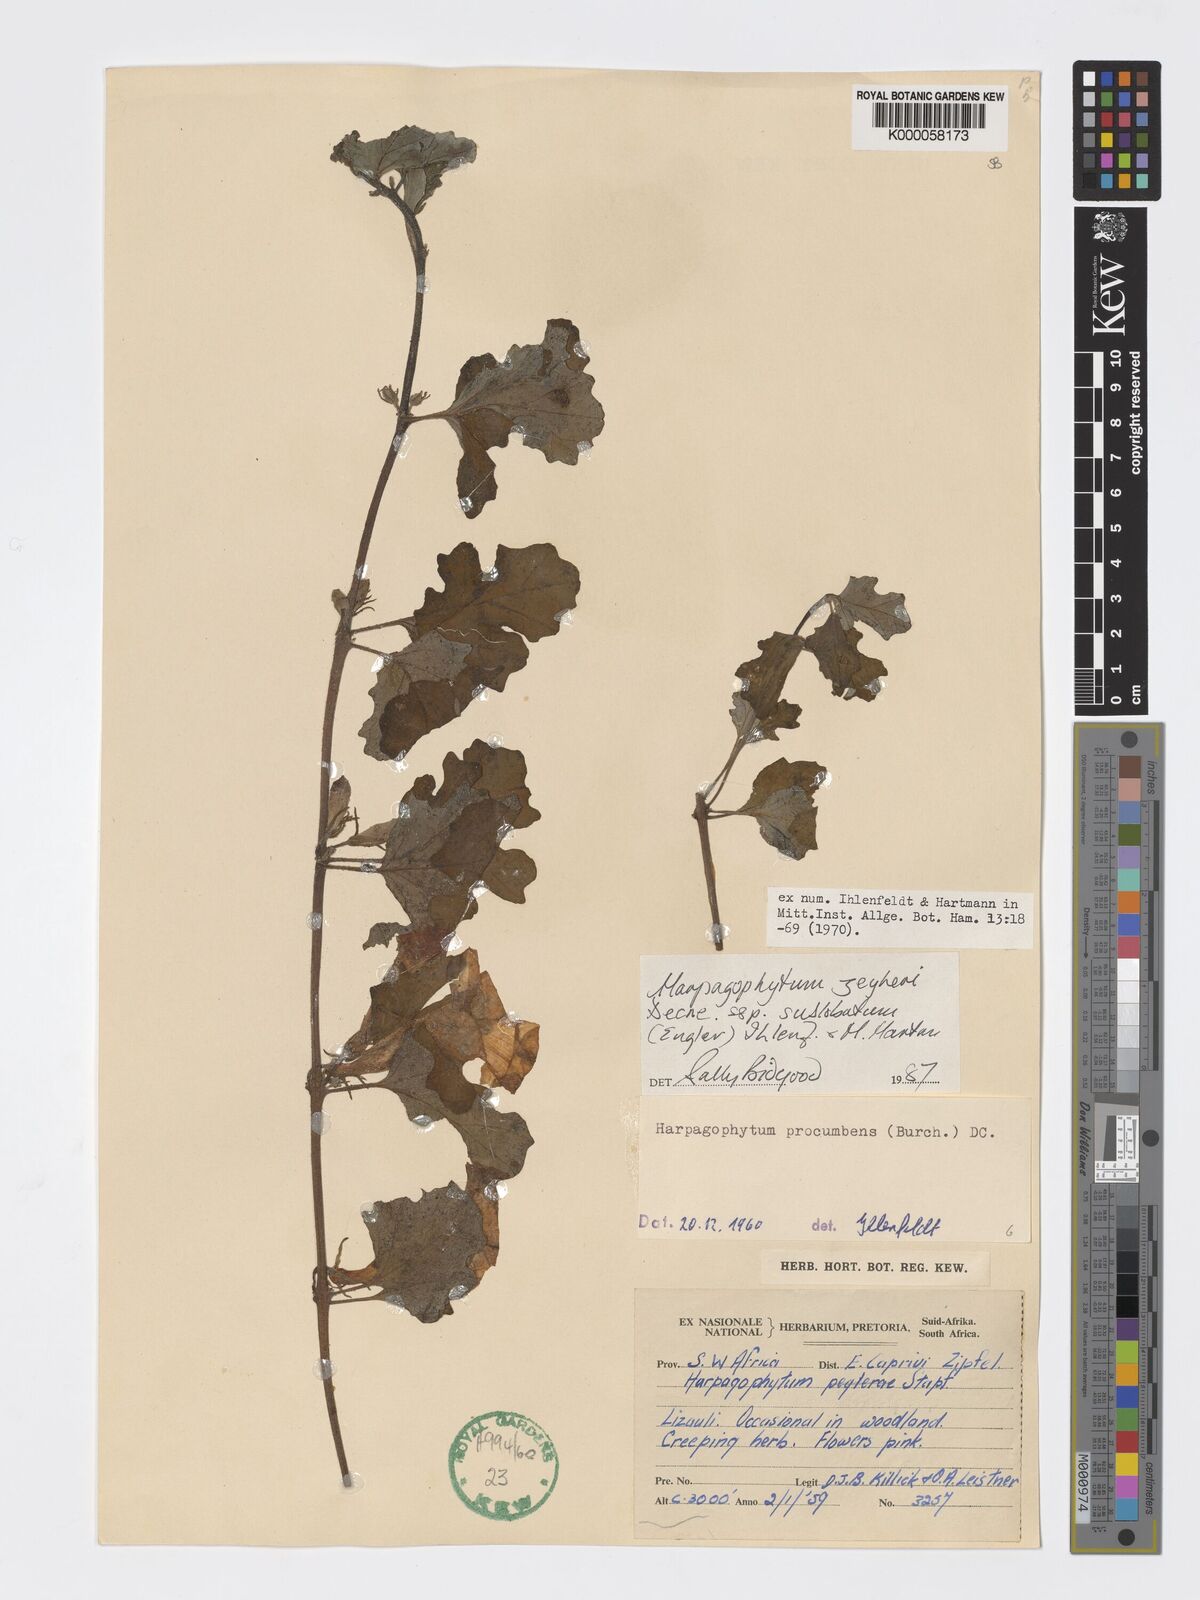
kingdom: Plantae
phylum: Tracheophyta
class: Magnoliopsida
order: Lamiales
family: Pedaliaceae
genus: Harpagophytum
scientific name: Harpagophytum zeyheri
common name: Grappleplant
